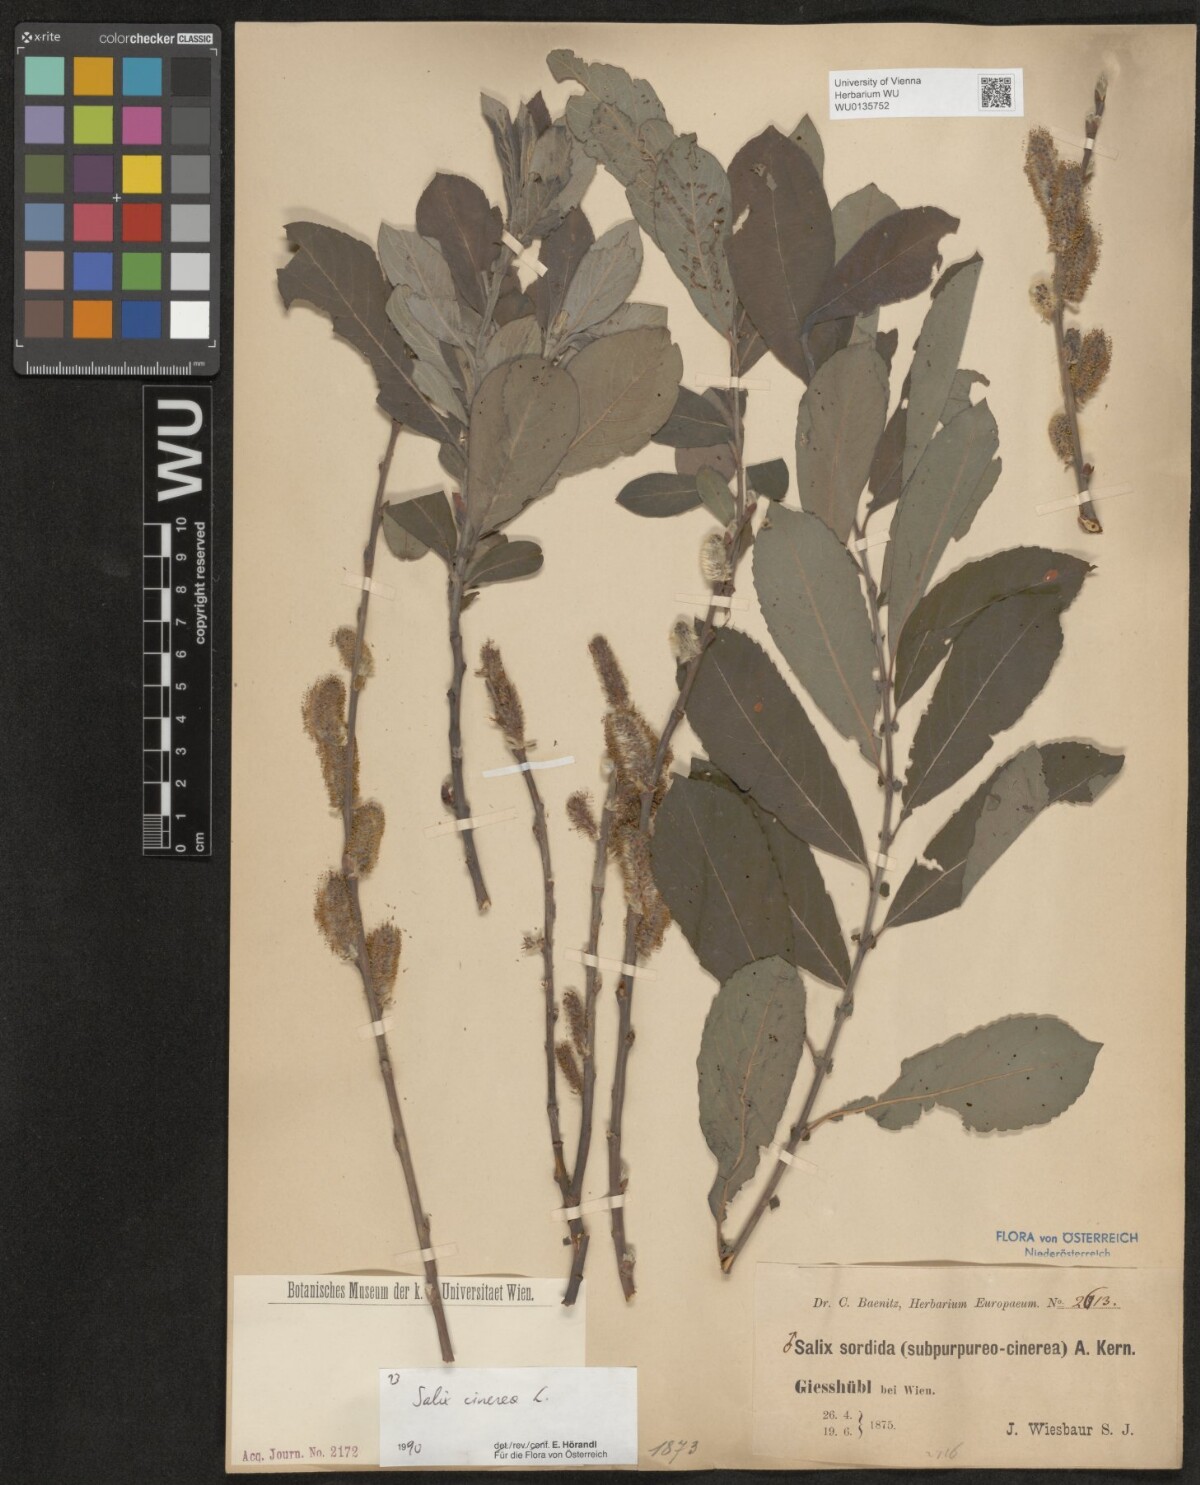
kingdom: Plantae
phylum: Tracheophyta
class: Magnoliopsida
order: Malpighiales
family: Salicaceae
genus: Salix
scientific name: Salix cinerea
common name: Common sallow
